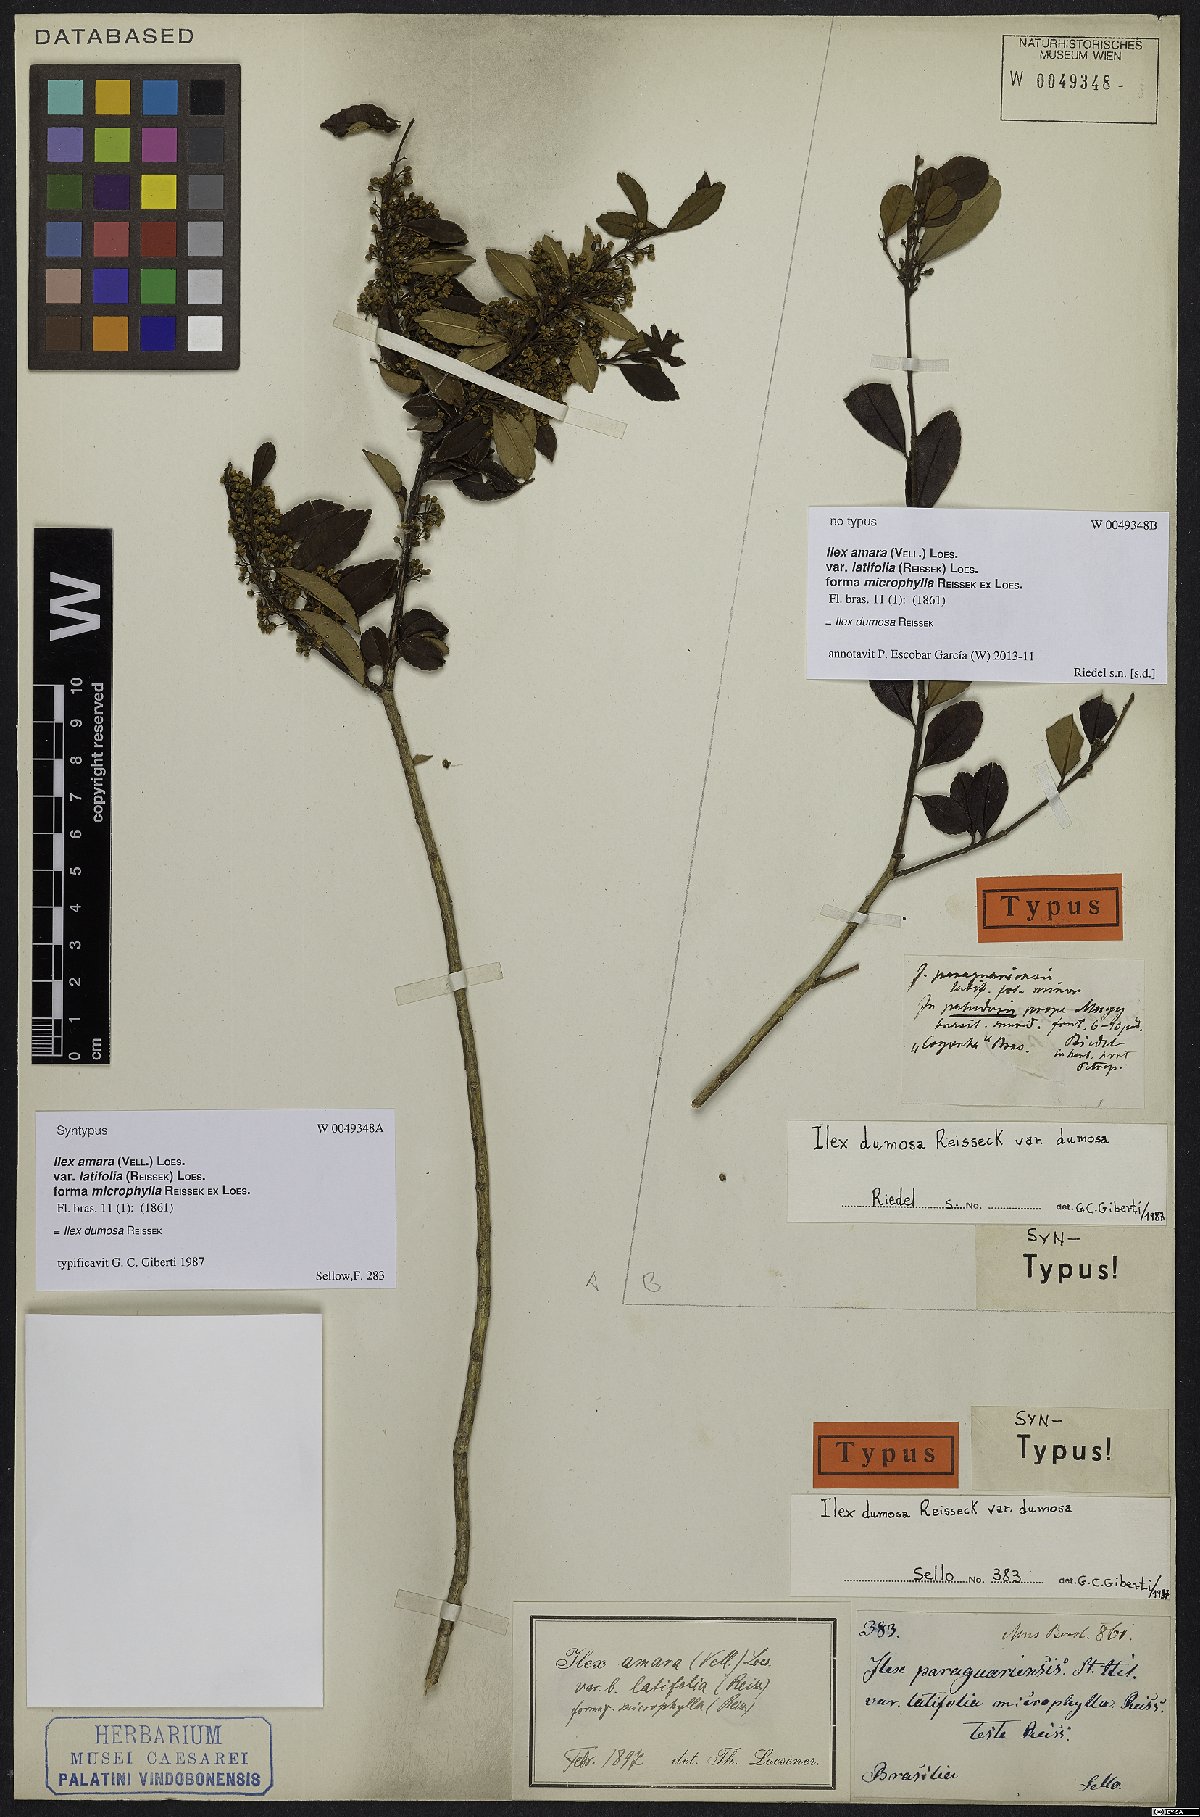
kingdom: Plantae
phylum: Tracheophyta
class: Magnoliopsida
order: Aquifoliales
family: Aquifoliaceae
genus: Ilex
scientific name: Ilex dumosa
